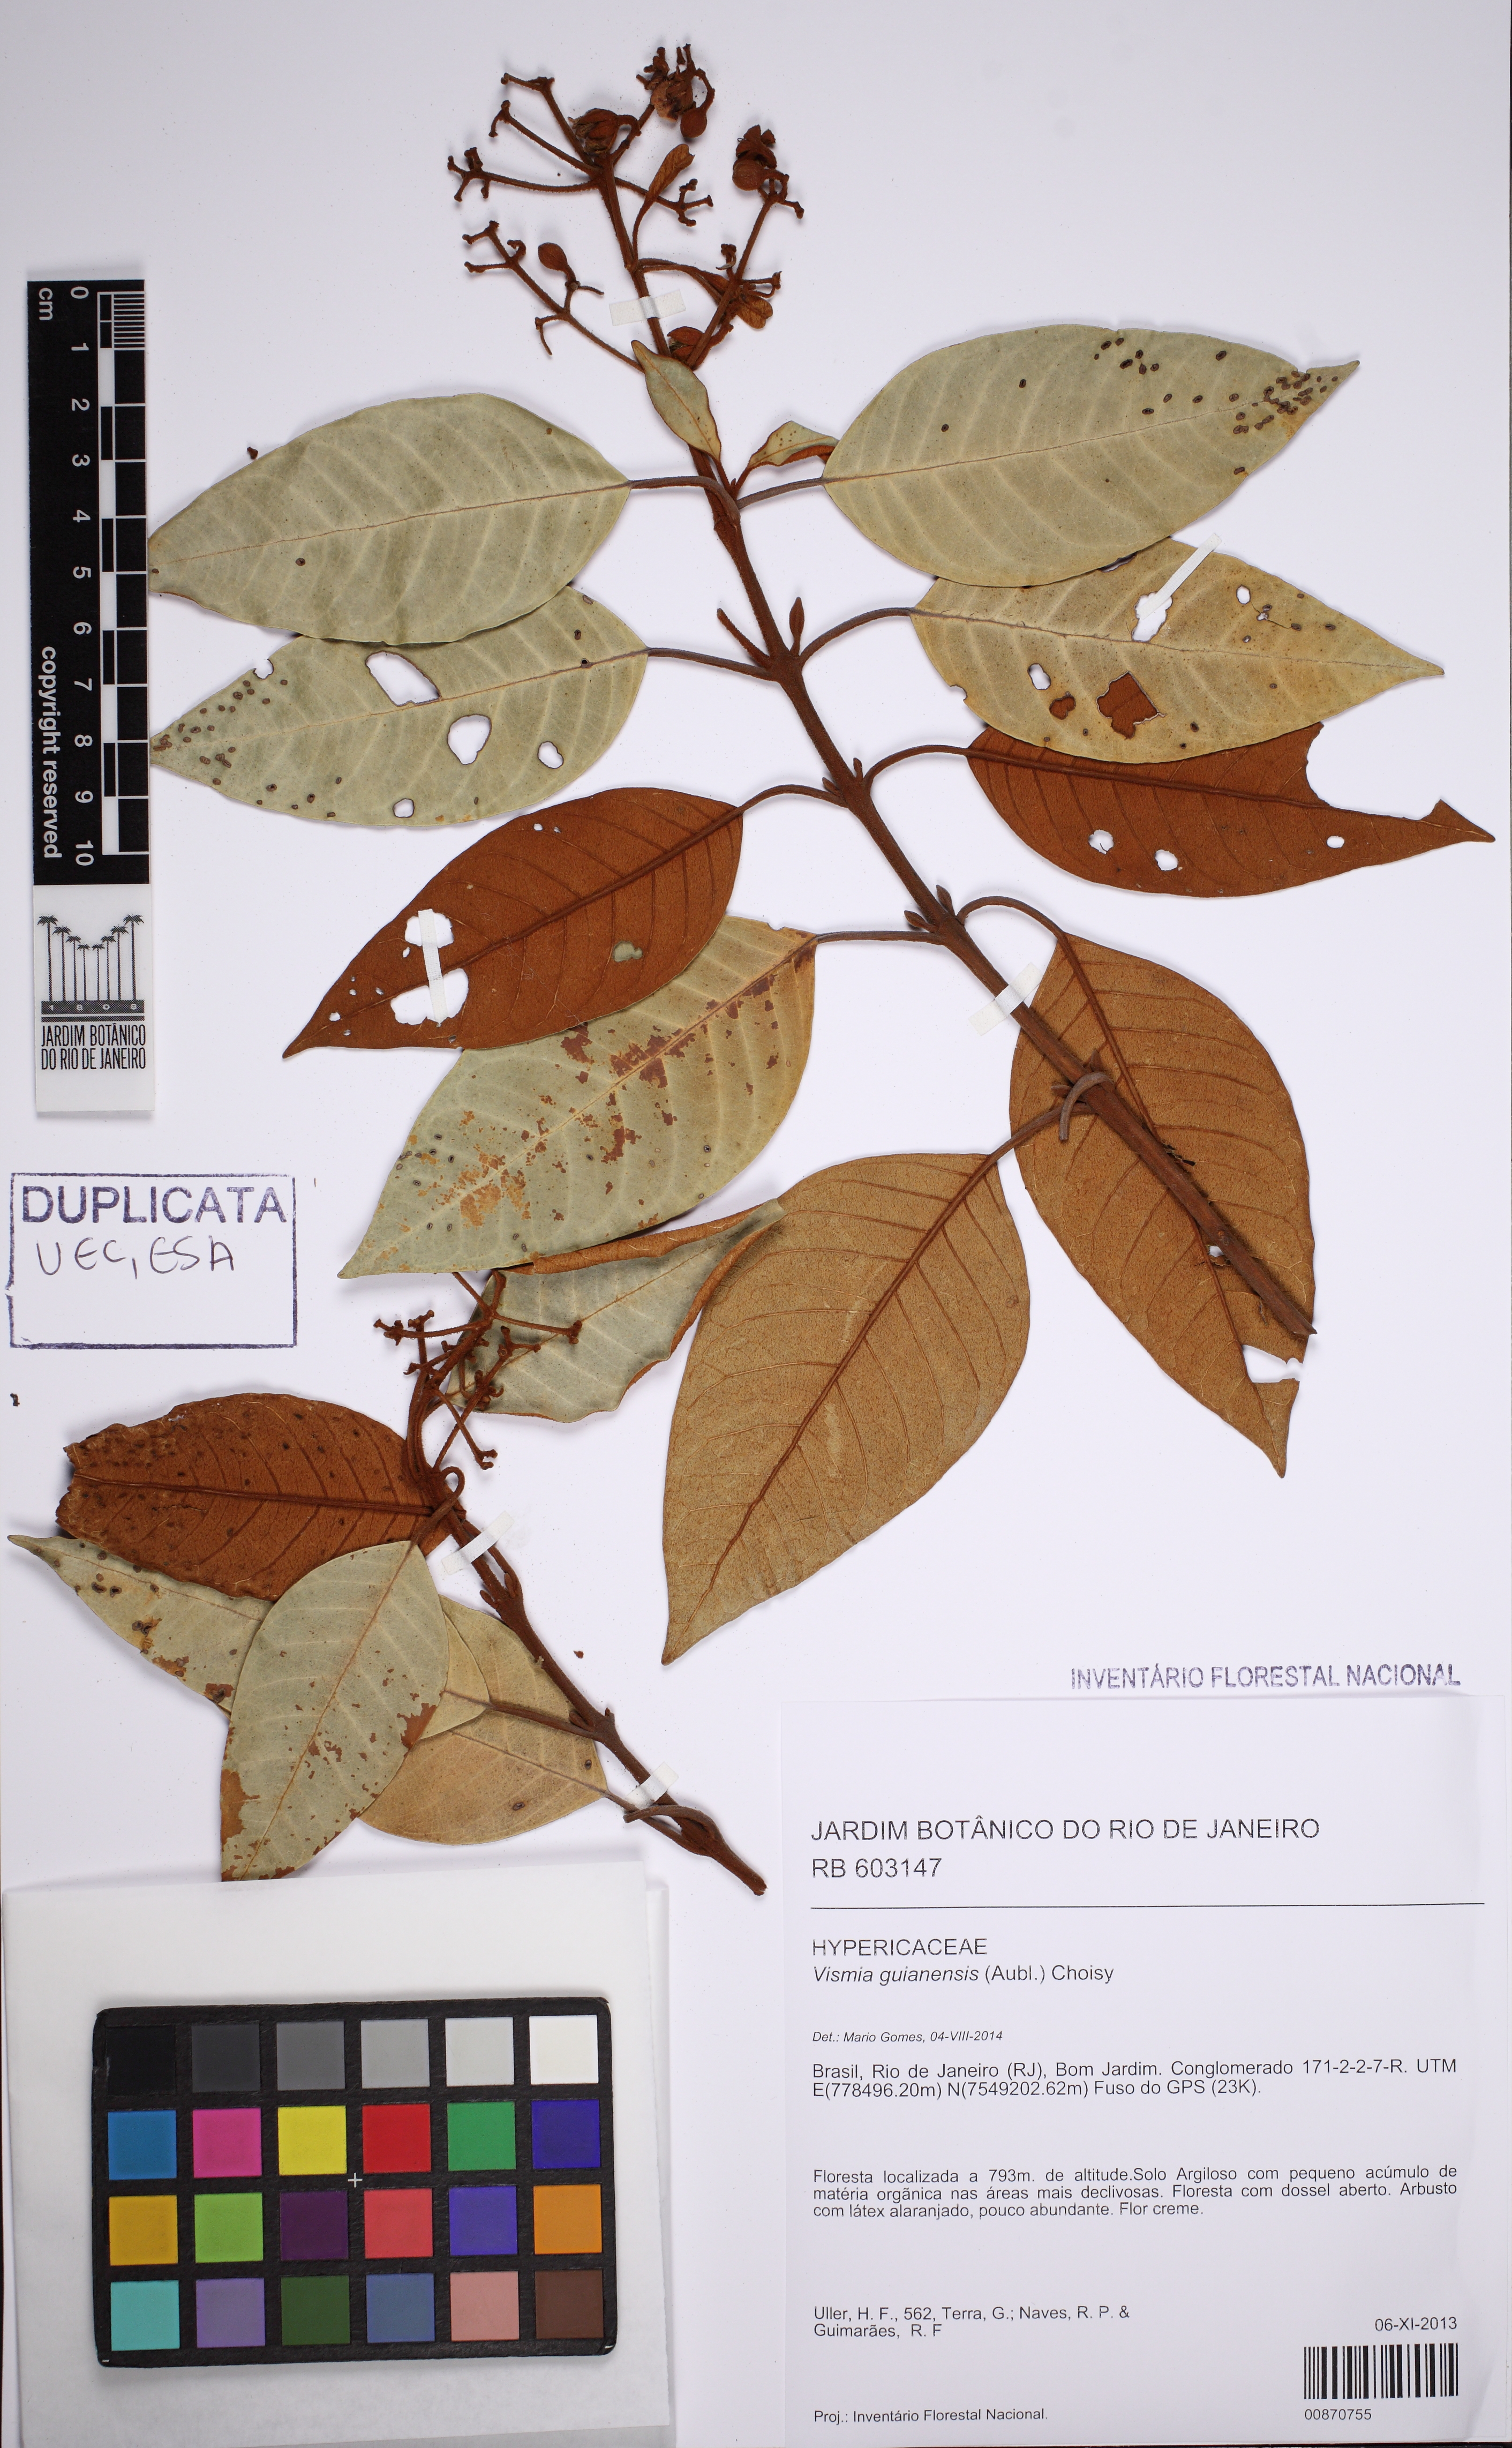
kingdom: Plantae
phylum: Tracheophyta
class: Magnoliopsida
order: Malpighiales
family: Hypericaceae
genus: Vismia
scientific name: Vismia magnoliifolia
